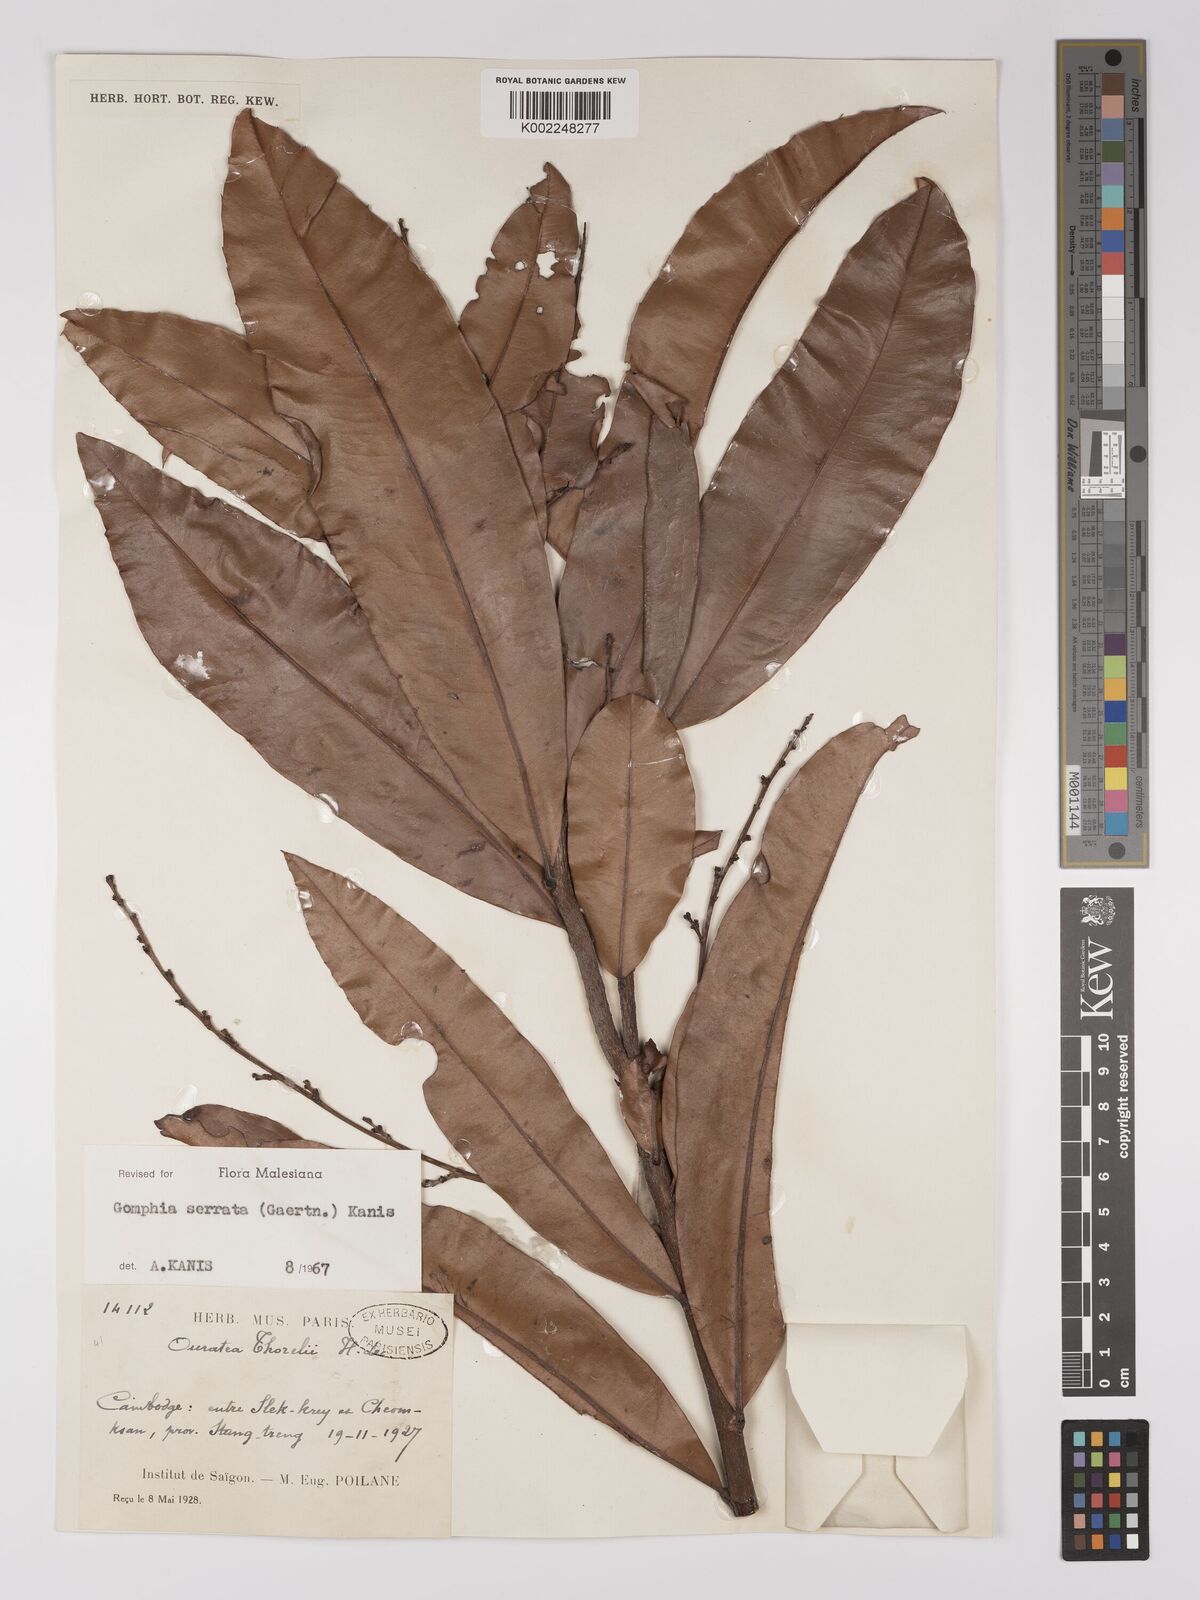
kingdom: Plantae
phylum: Tracheophyta
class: Magnoliopsida
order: Malpighiales
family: Ochnaceae
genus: Gomphia
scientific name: Gomphia serrata
